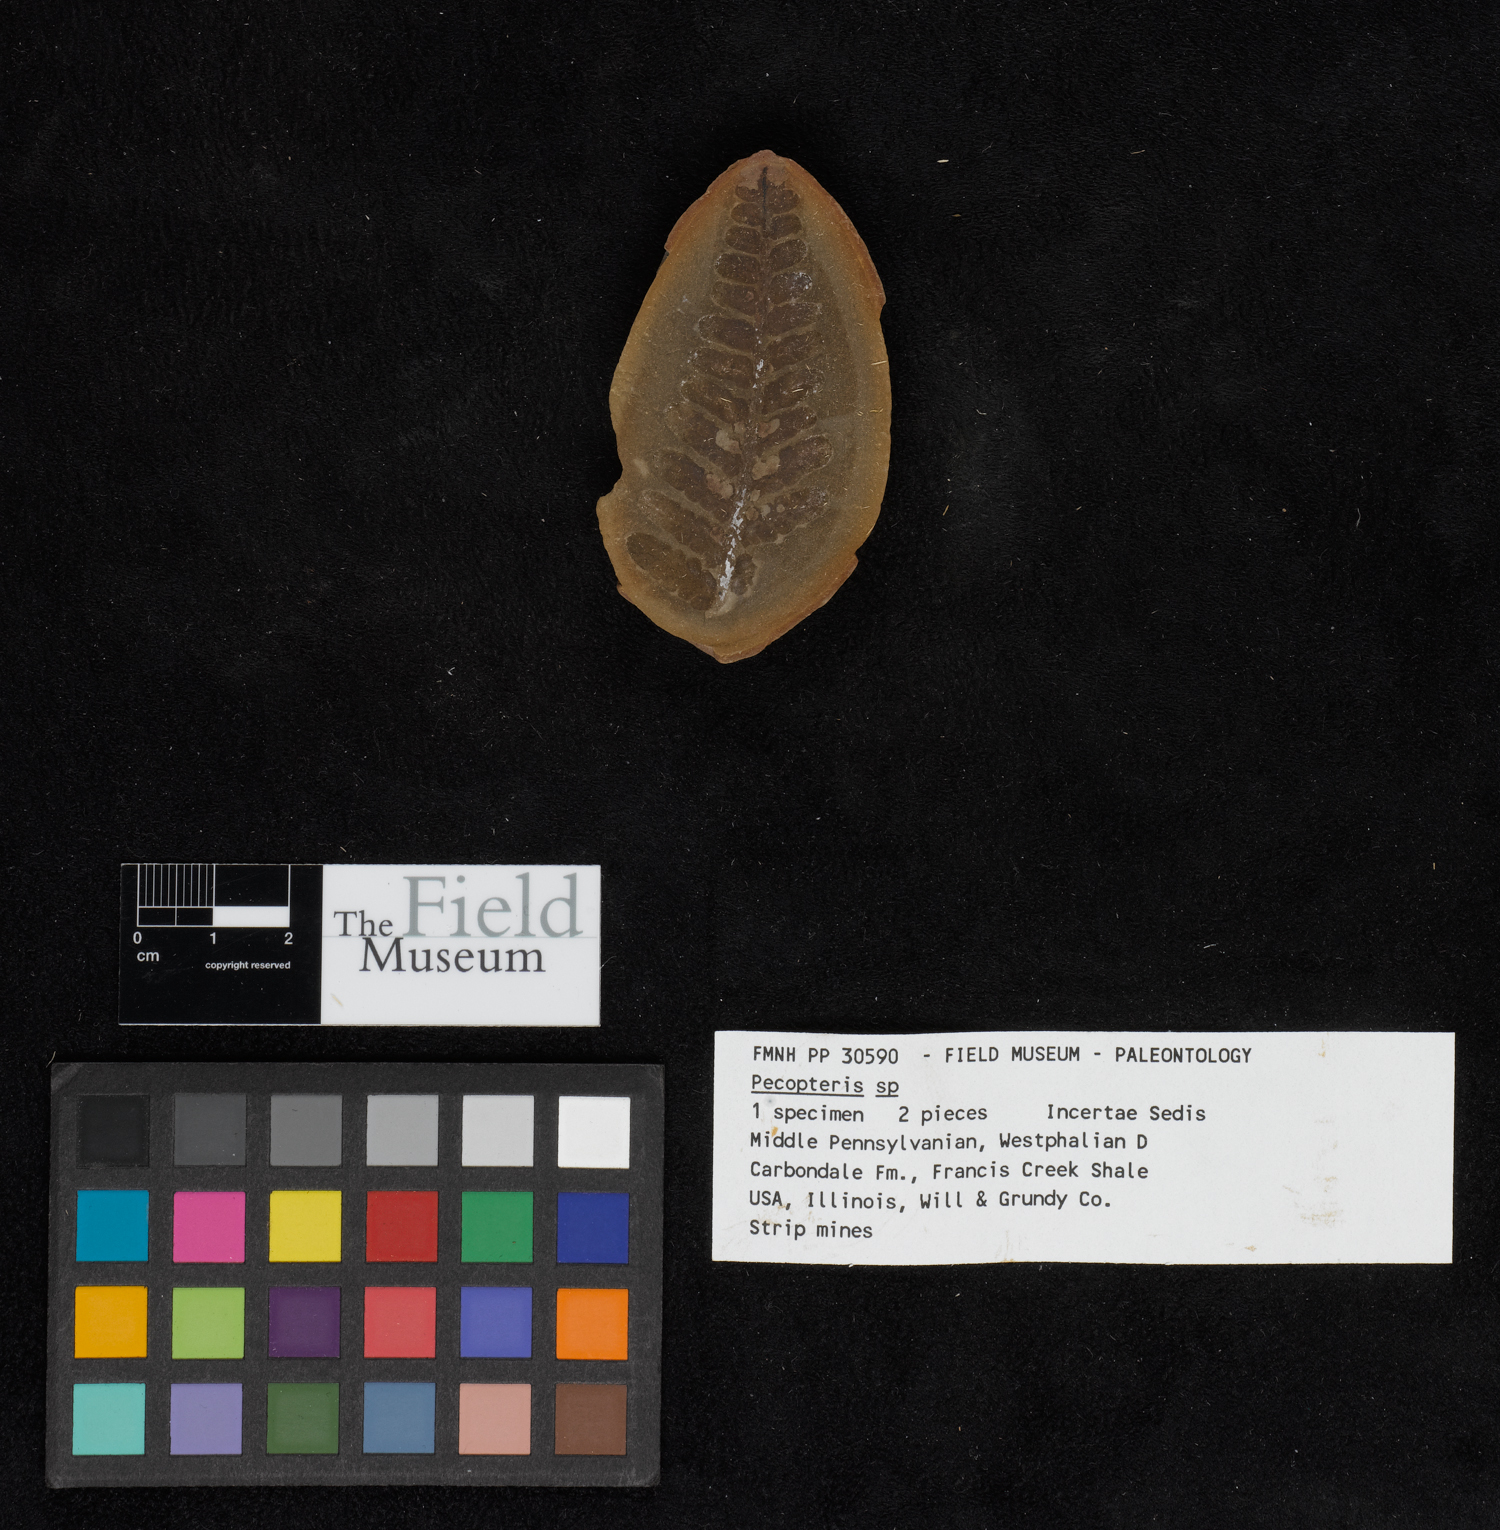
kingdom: Plantae
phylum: Tracheophyta
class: Polypodiopsida
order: Marattiales
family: Asterothecaceae
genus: Pecopteris
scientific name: Pecopteris
